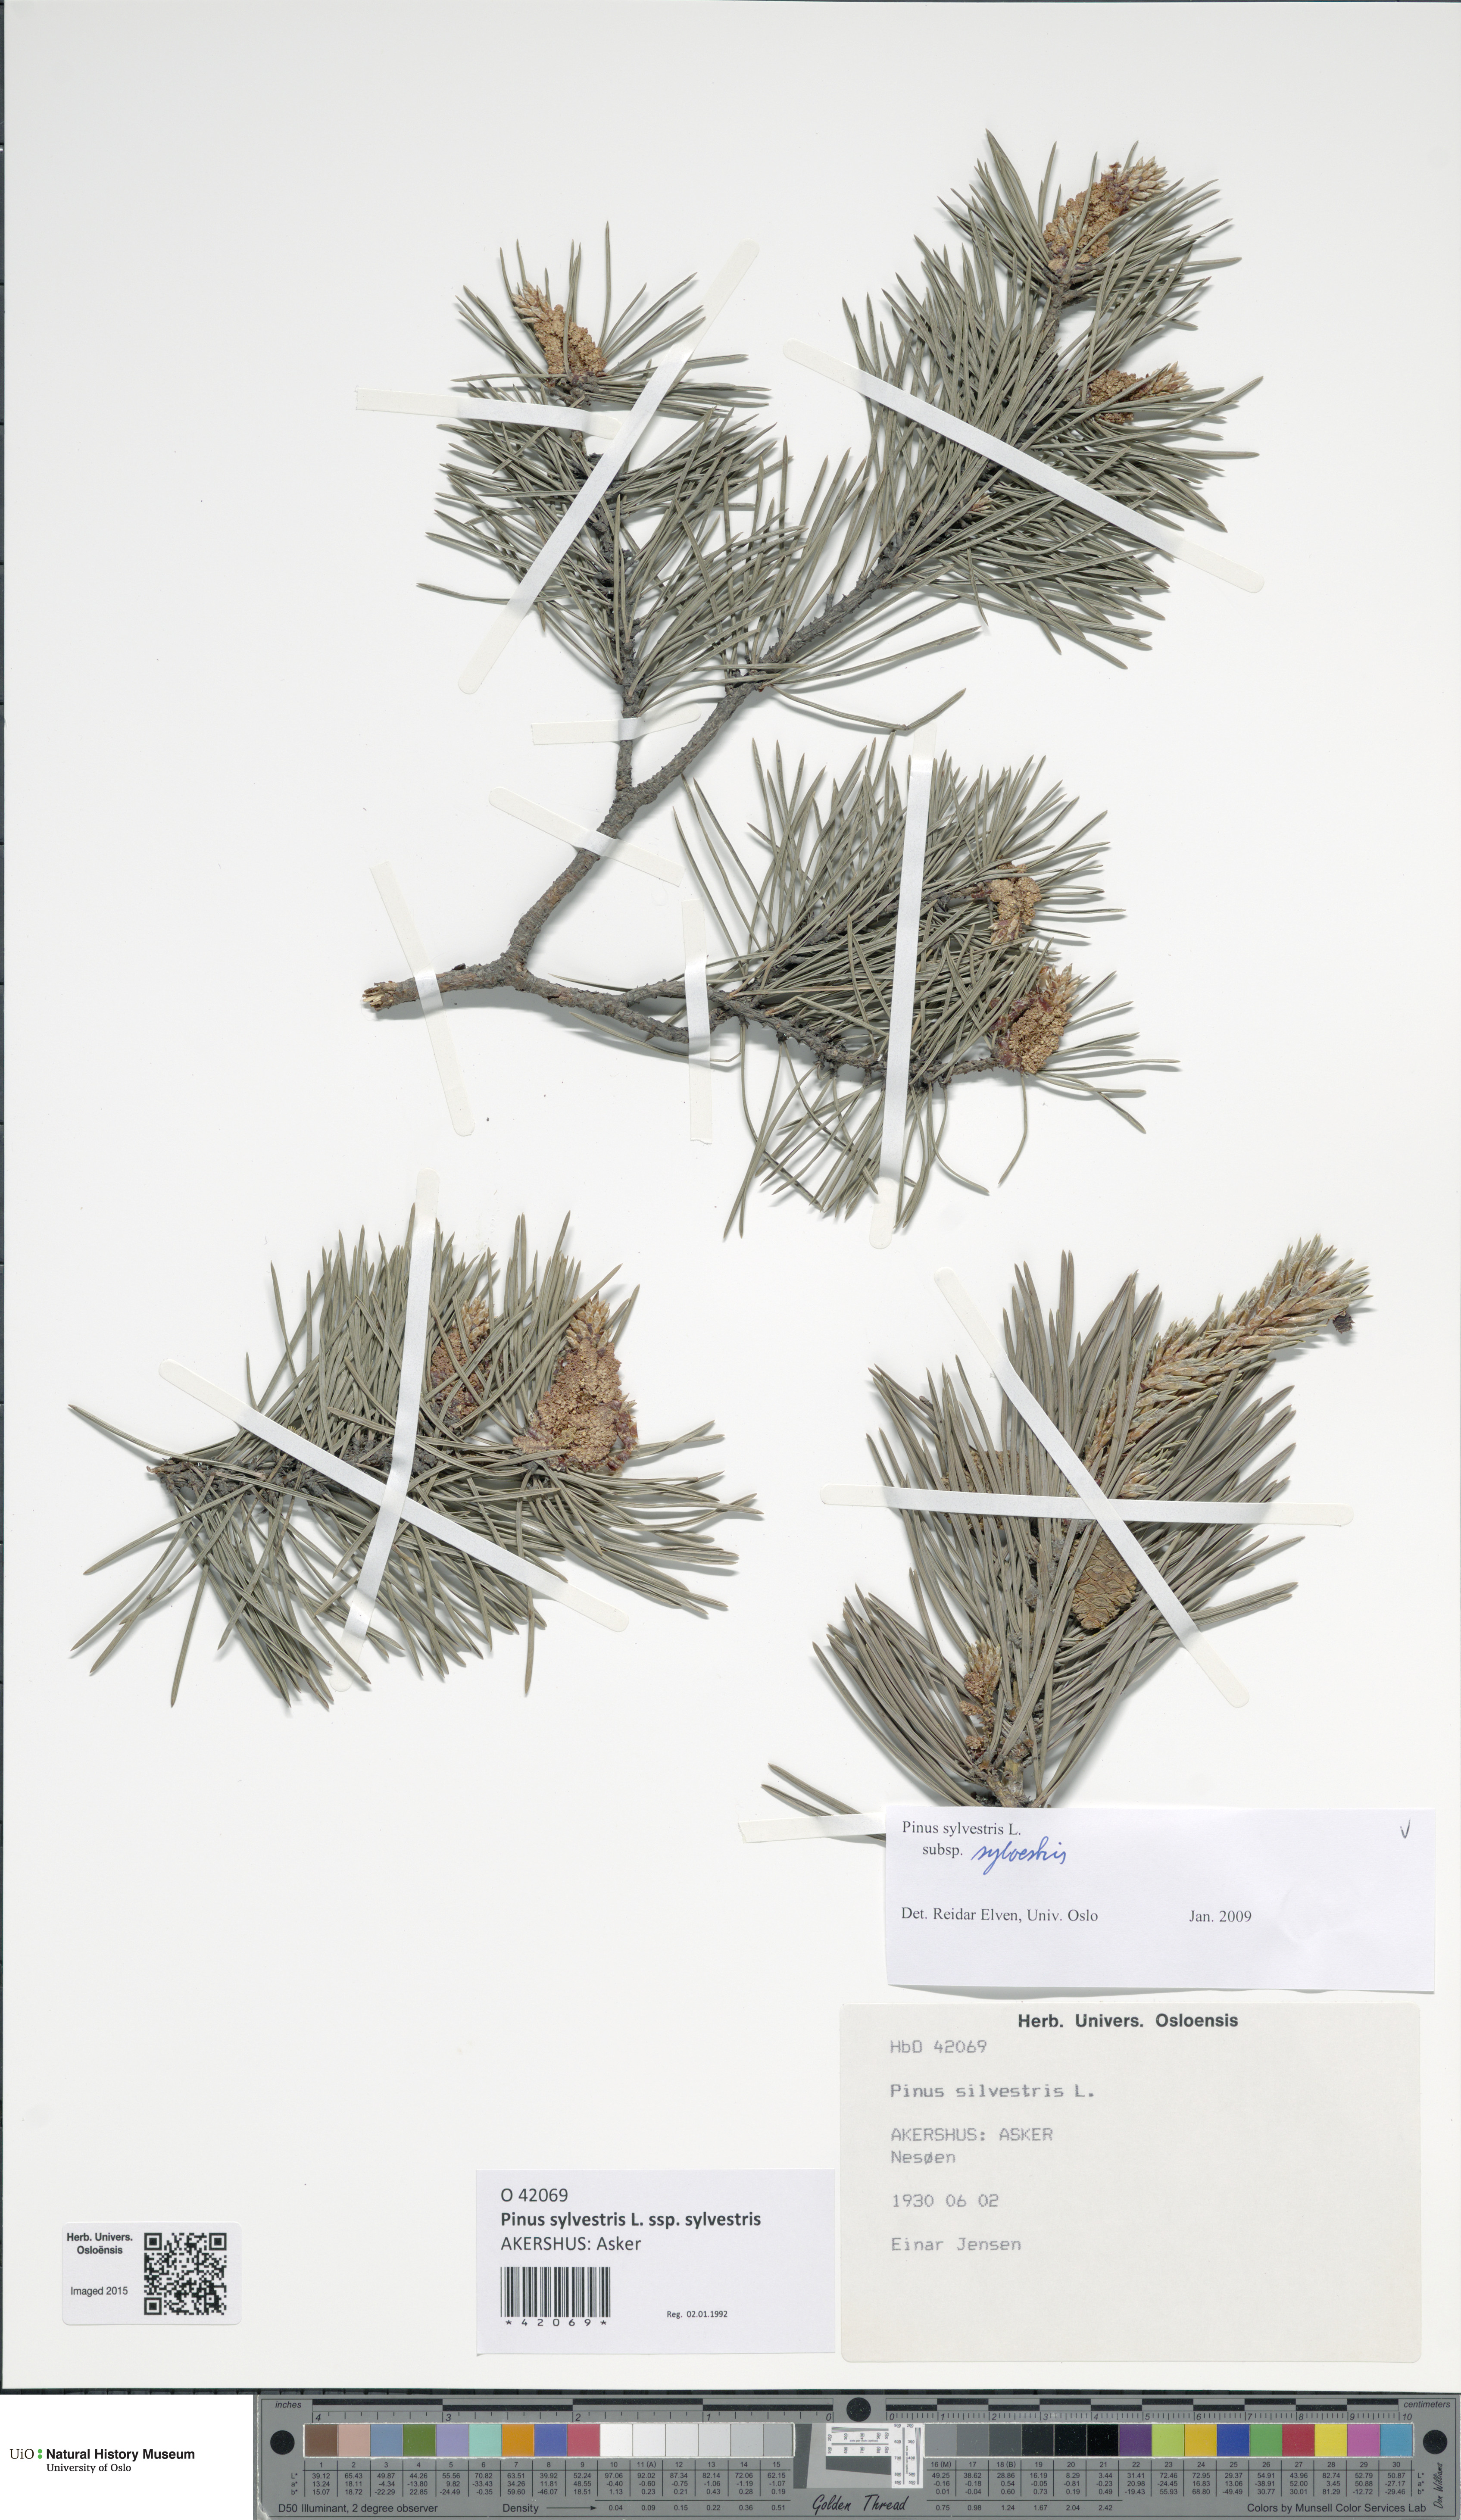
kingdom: Plantae
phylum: Tracheophyta
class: Pinopsida
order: Pinales
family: Pinaceae
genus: Pinus
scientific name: Pinus sylvestris
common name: Scots pine
